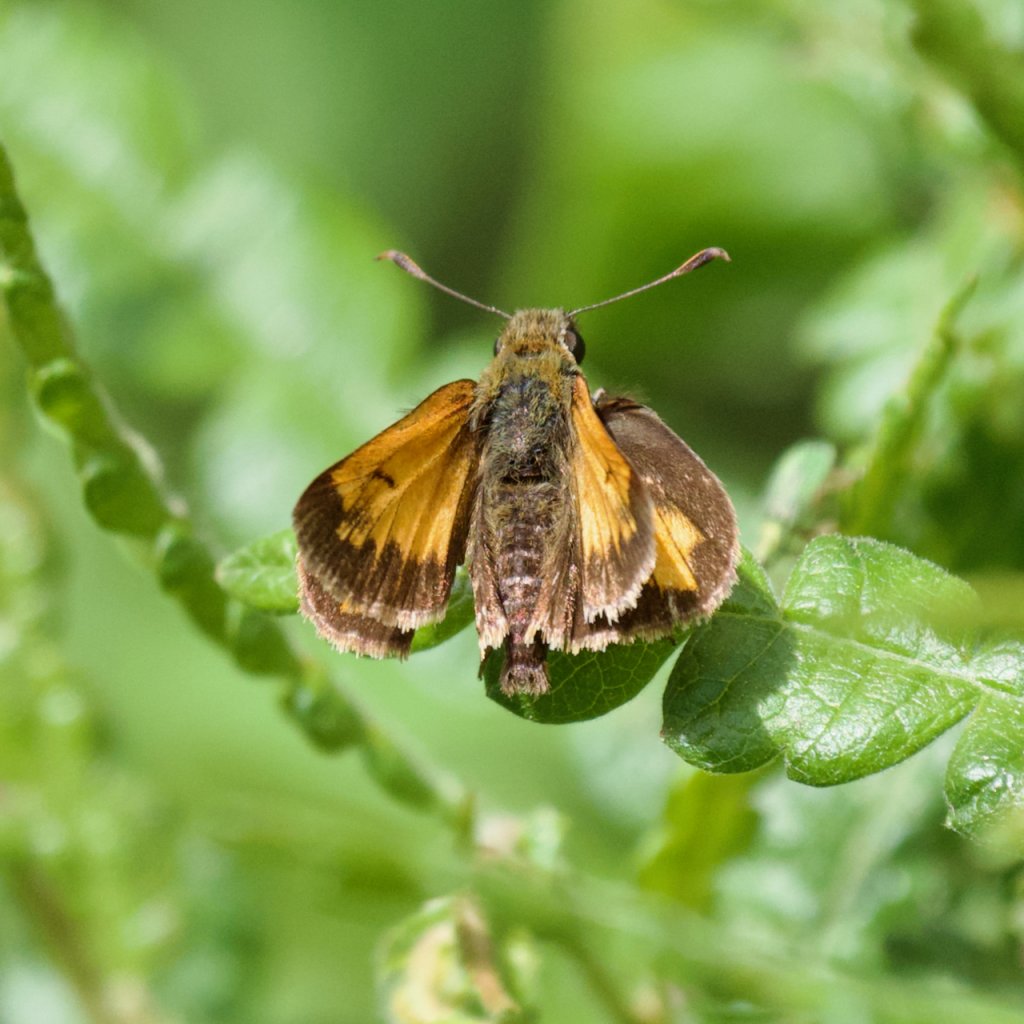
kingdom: Animalia
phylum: Arthropoda
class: Insecta
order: Lepidoptera
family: Hesperiidae
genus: Lon
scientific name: Lon hobomok
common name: Hobomok Skipper
